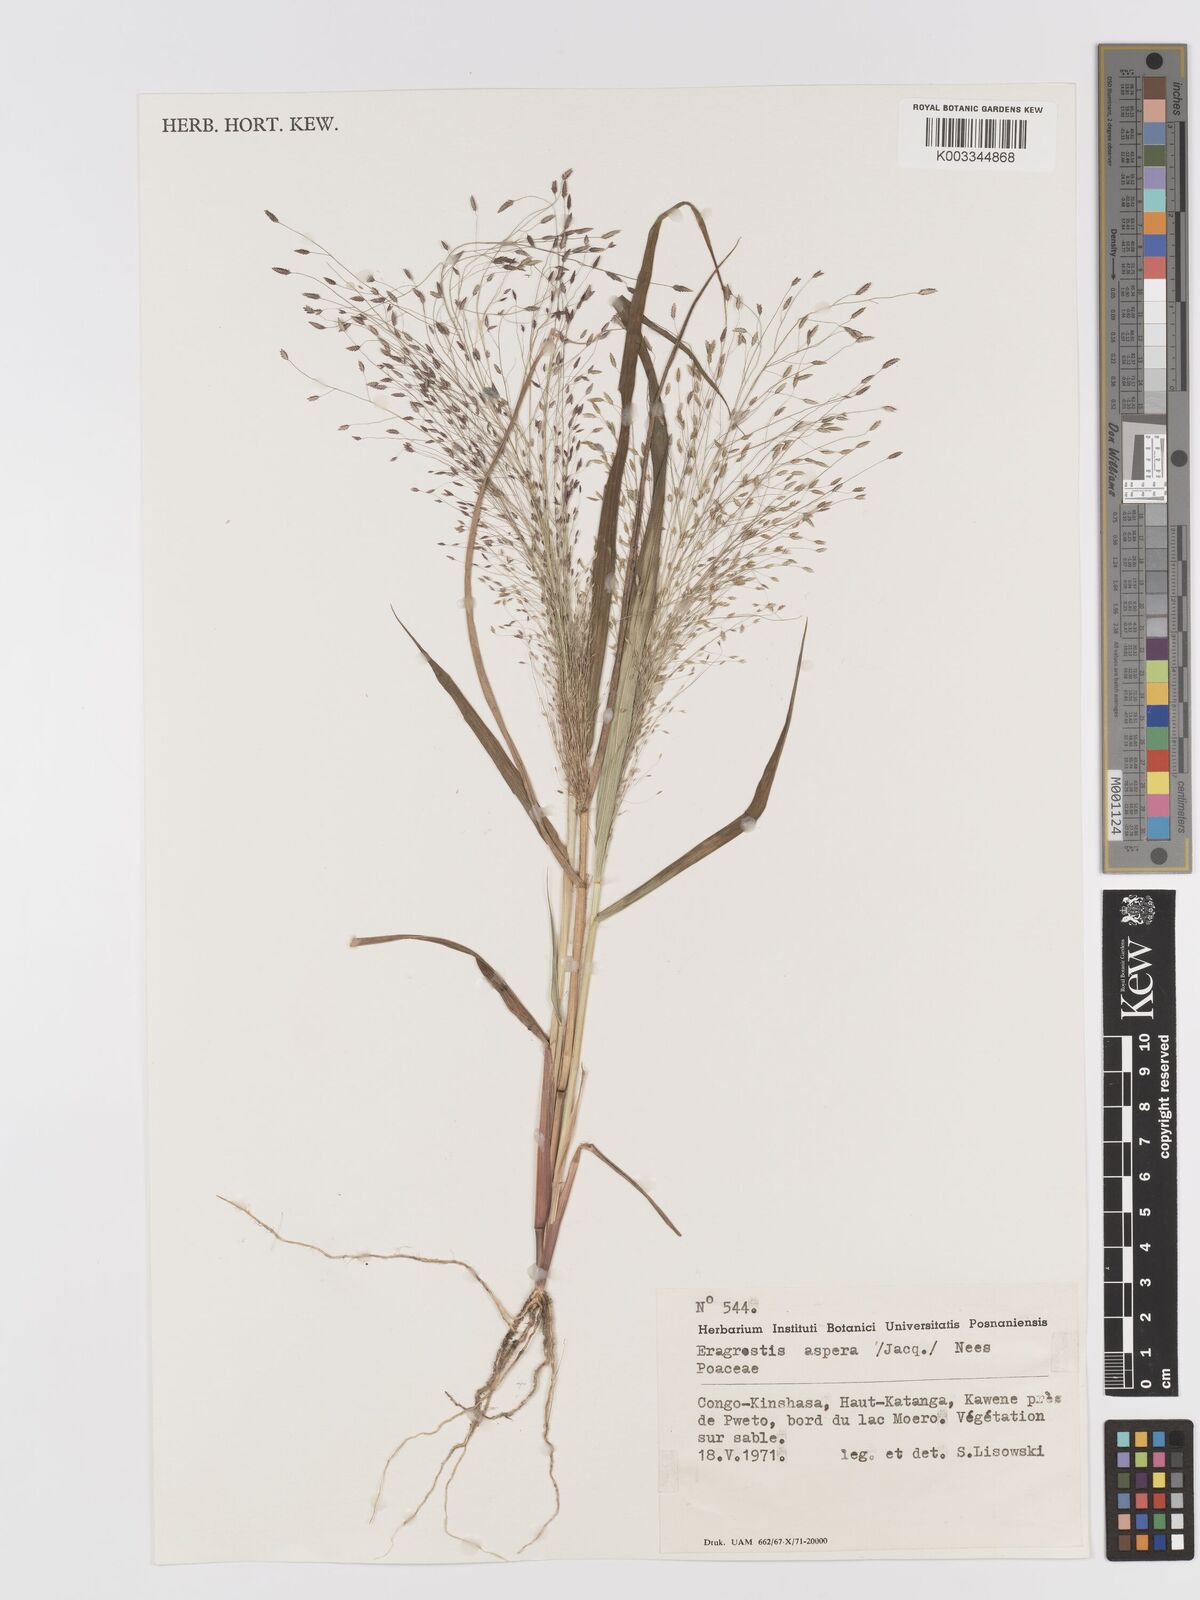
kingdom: Plantae
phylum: Tracheophyta
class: Liliopsida
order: Poales
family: Poaceae
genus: Eragrostis
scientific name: Eragrostis aspera
